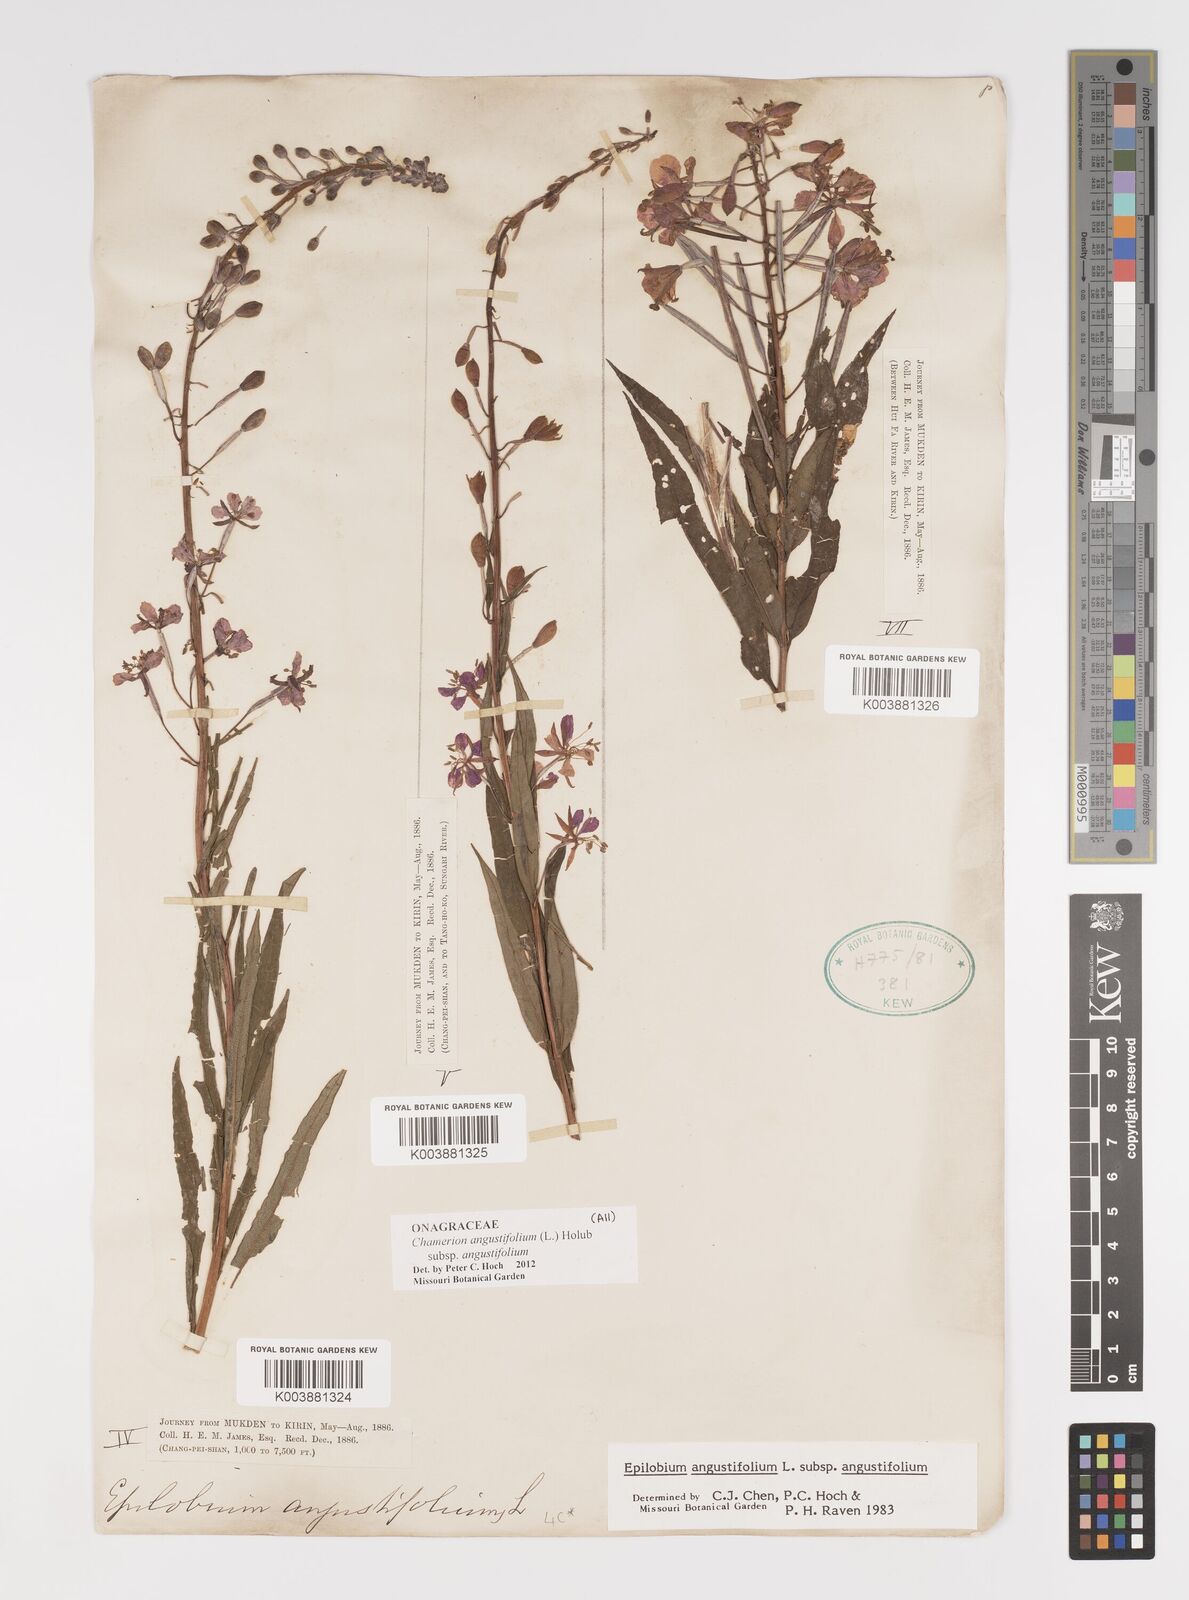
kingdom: Plantae
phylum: Tracheophyta
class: Magnoliopsida
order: Myrtales
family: Onagraceae
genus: Chamaenerion
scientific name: Chamaenerion angustifolium
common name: Fireweed
